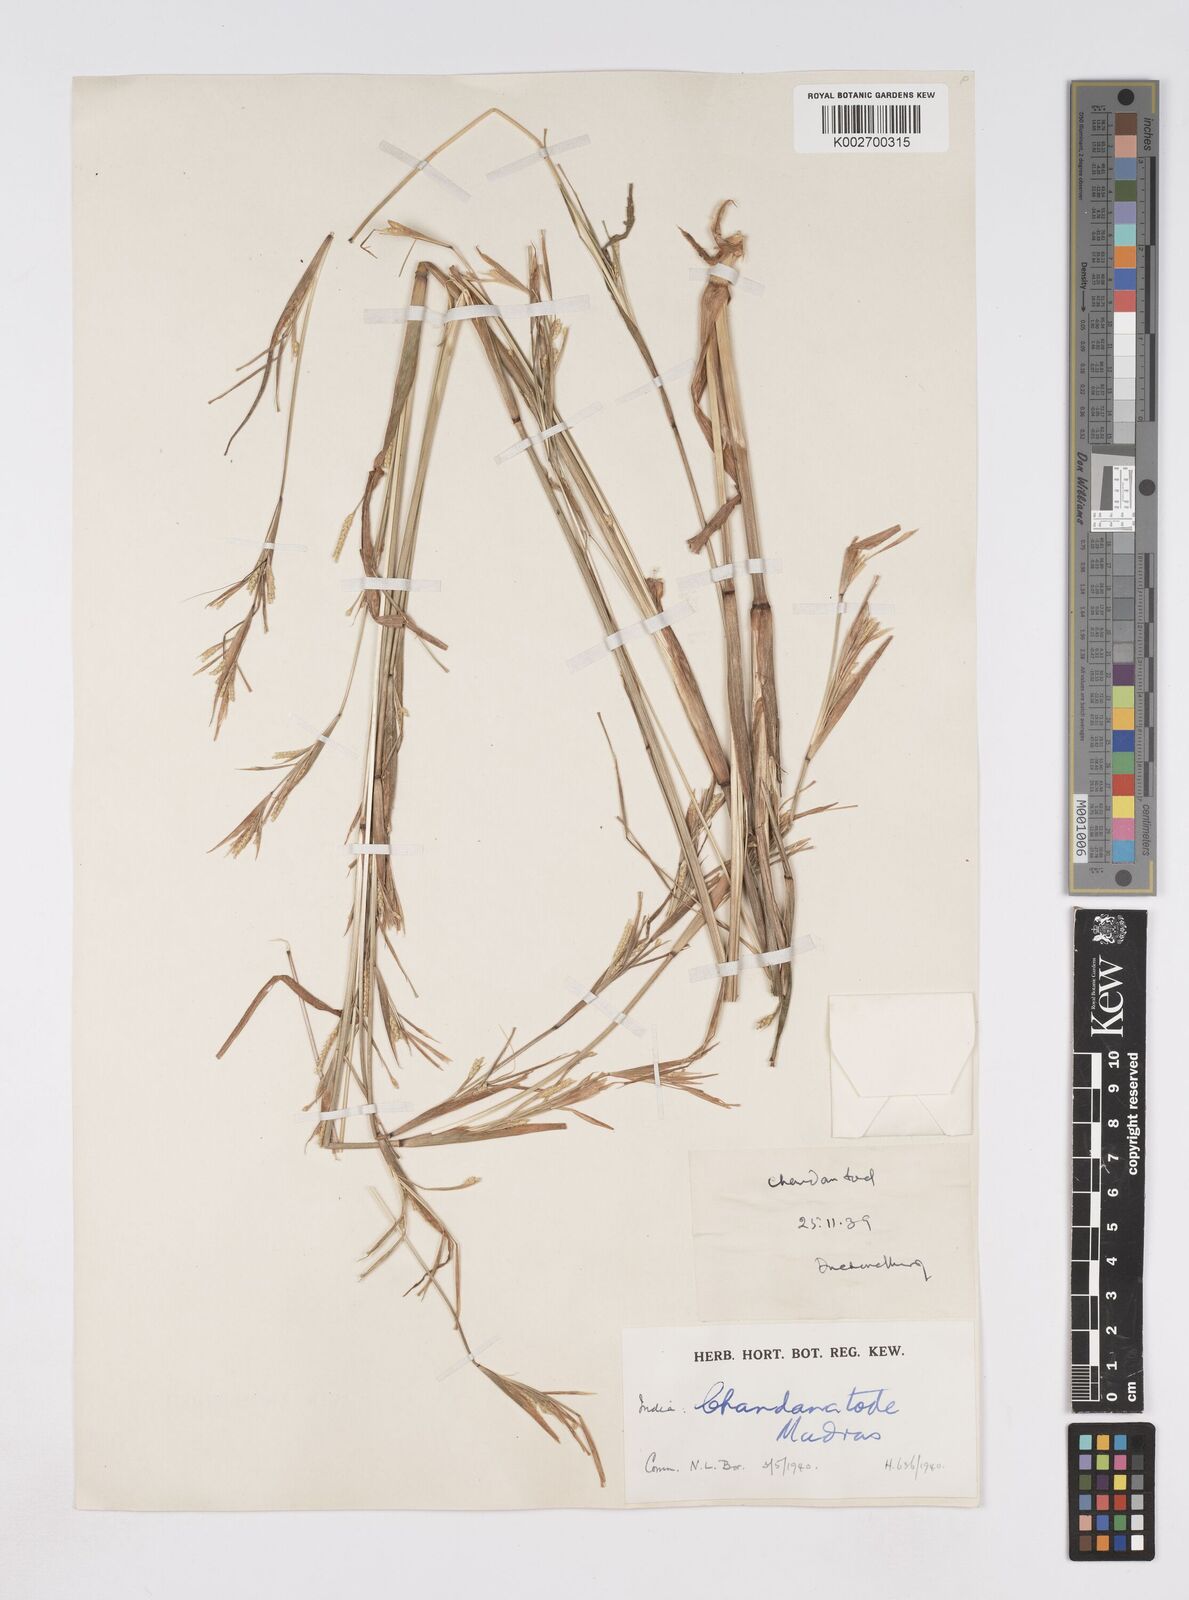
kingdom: Plantae
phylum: Tracheophyta
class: Liliopsida
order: Poales
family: Poaceae
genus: Rottboellia
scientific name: Rottboellia clarkei
